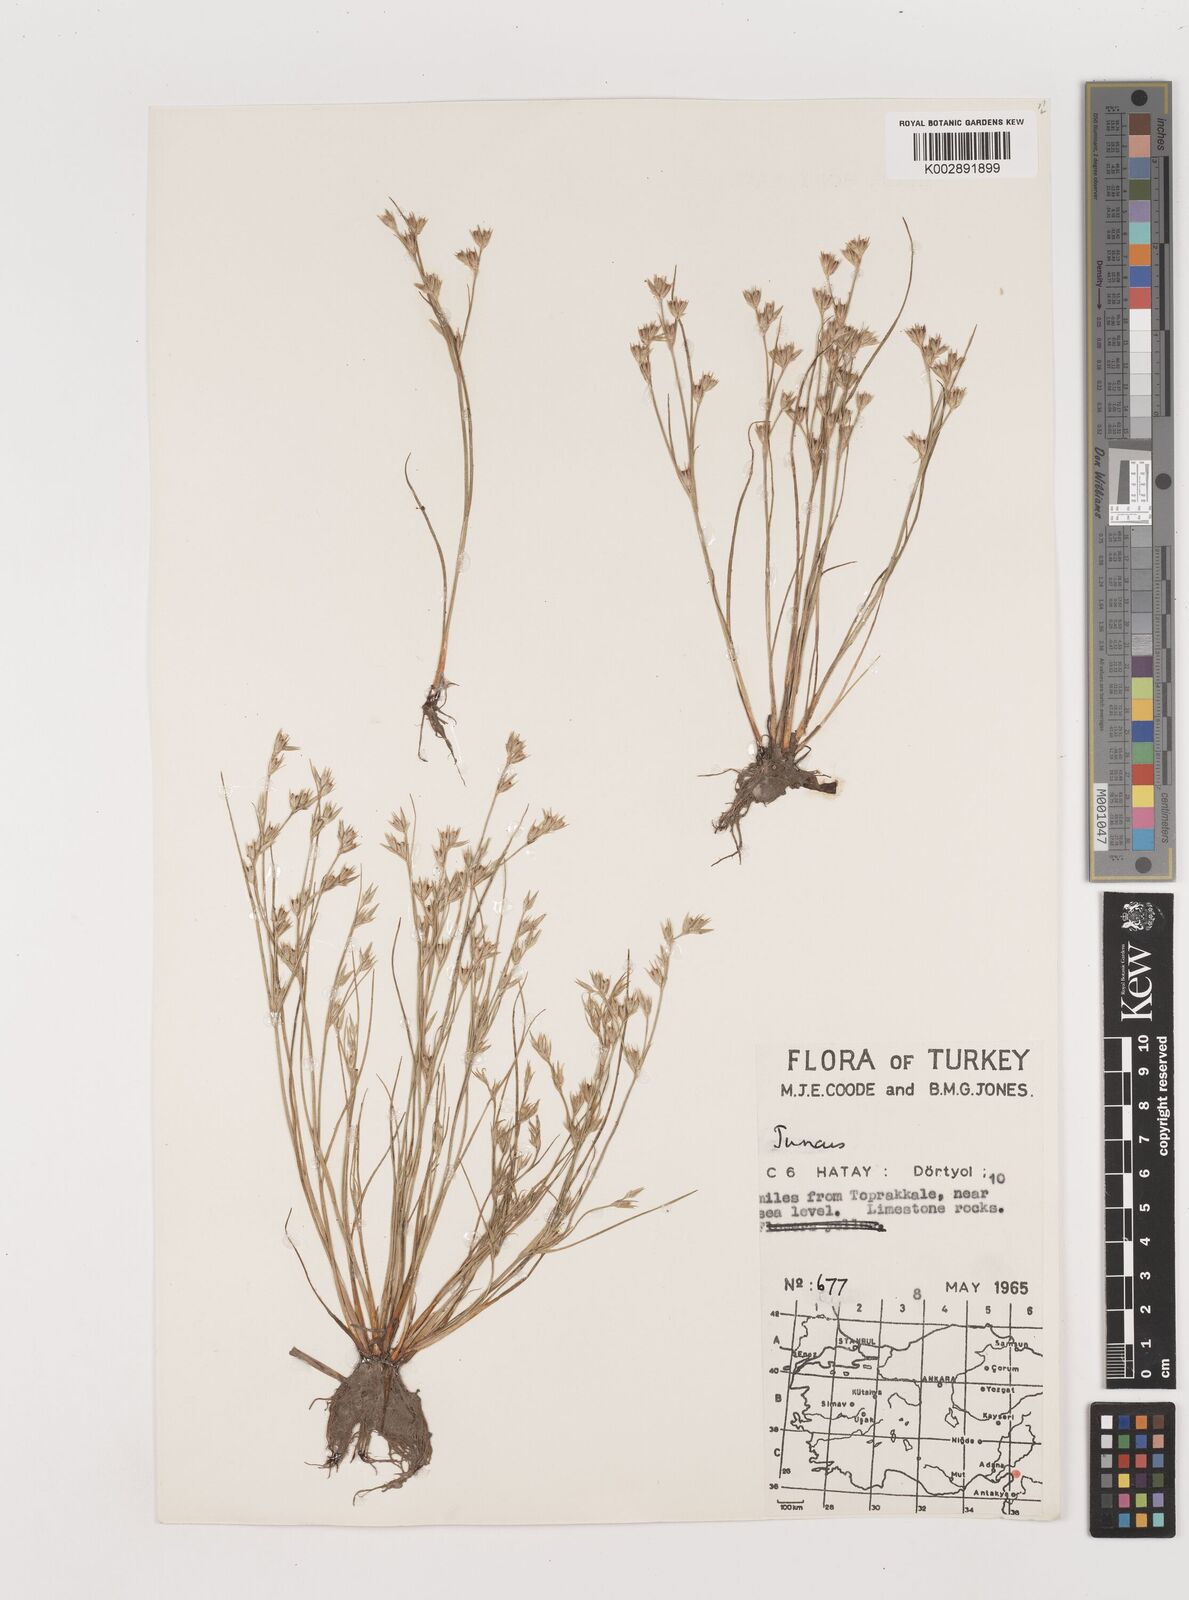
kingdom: Plantae
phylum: Tracheophyta
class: Liliopsida
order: Poales
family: Juncaceae
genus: Juncus
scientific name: Juncus
